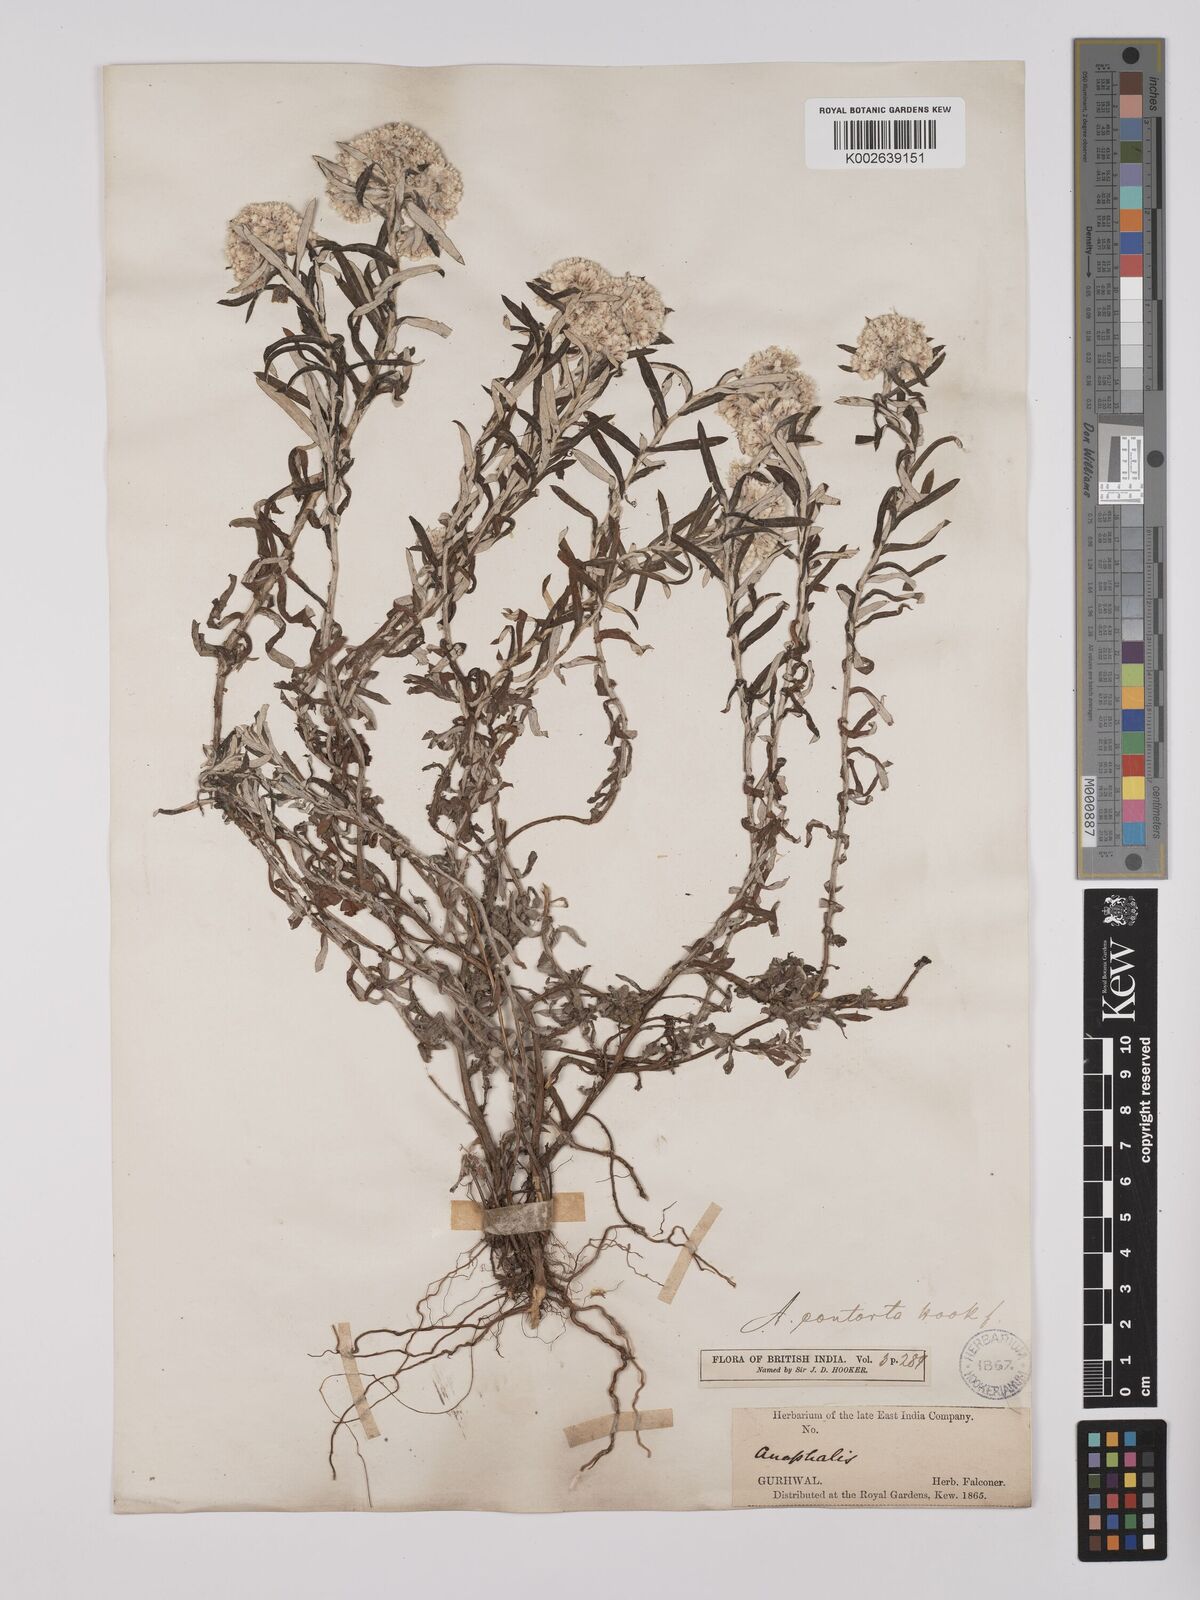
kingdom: Plantae
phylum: Tracheophyta
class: Magnoliopsida
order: Asterales
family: Asteraceae
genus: Anaphalis
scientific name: Anaphalis contorta
